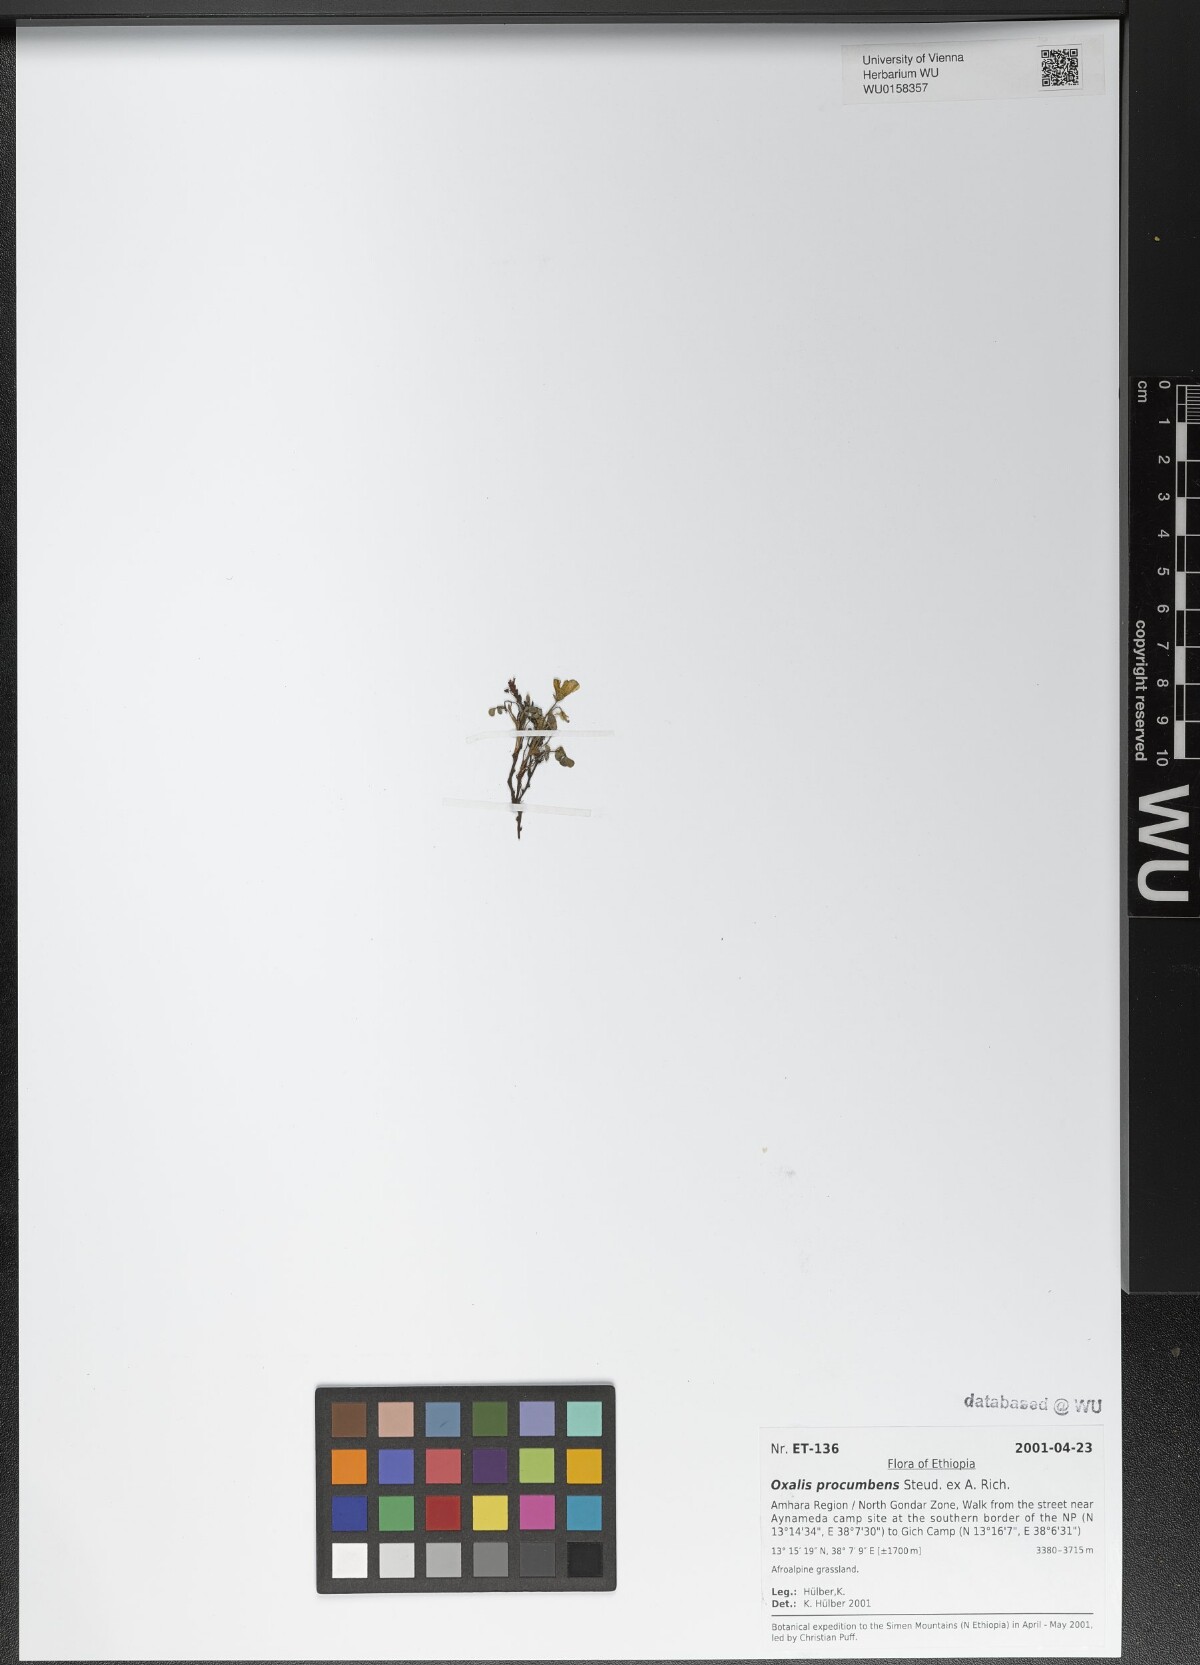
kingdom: Plantae
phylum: Tracheophyta
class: Magnoliopsida
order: Oxalidales
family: Oxalidaceae
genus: Oxalis
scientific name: Oxalis procumbens
